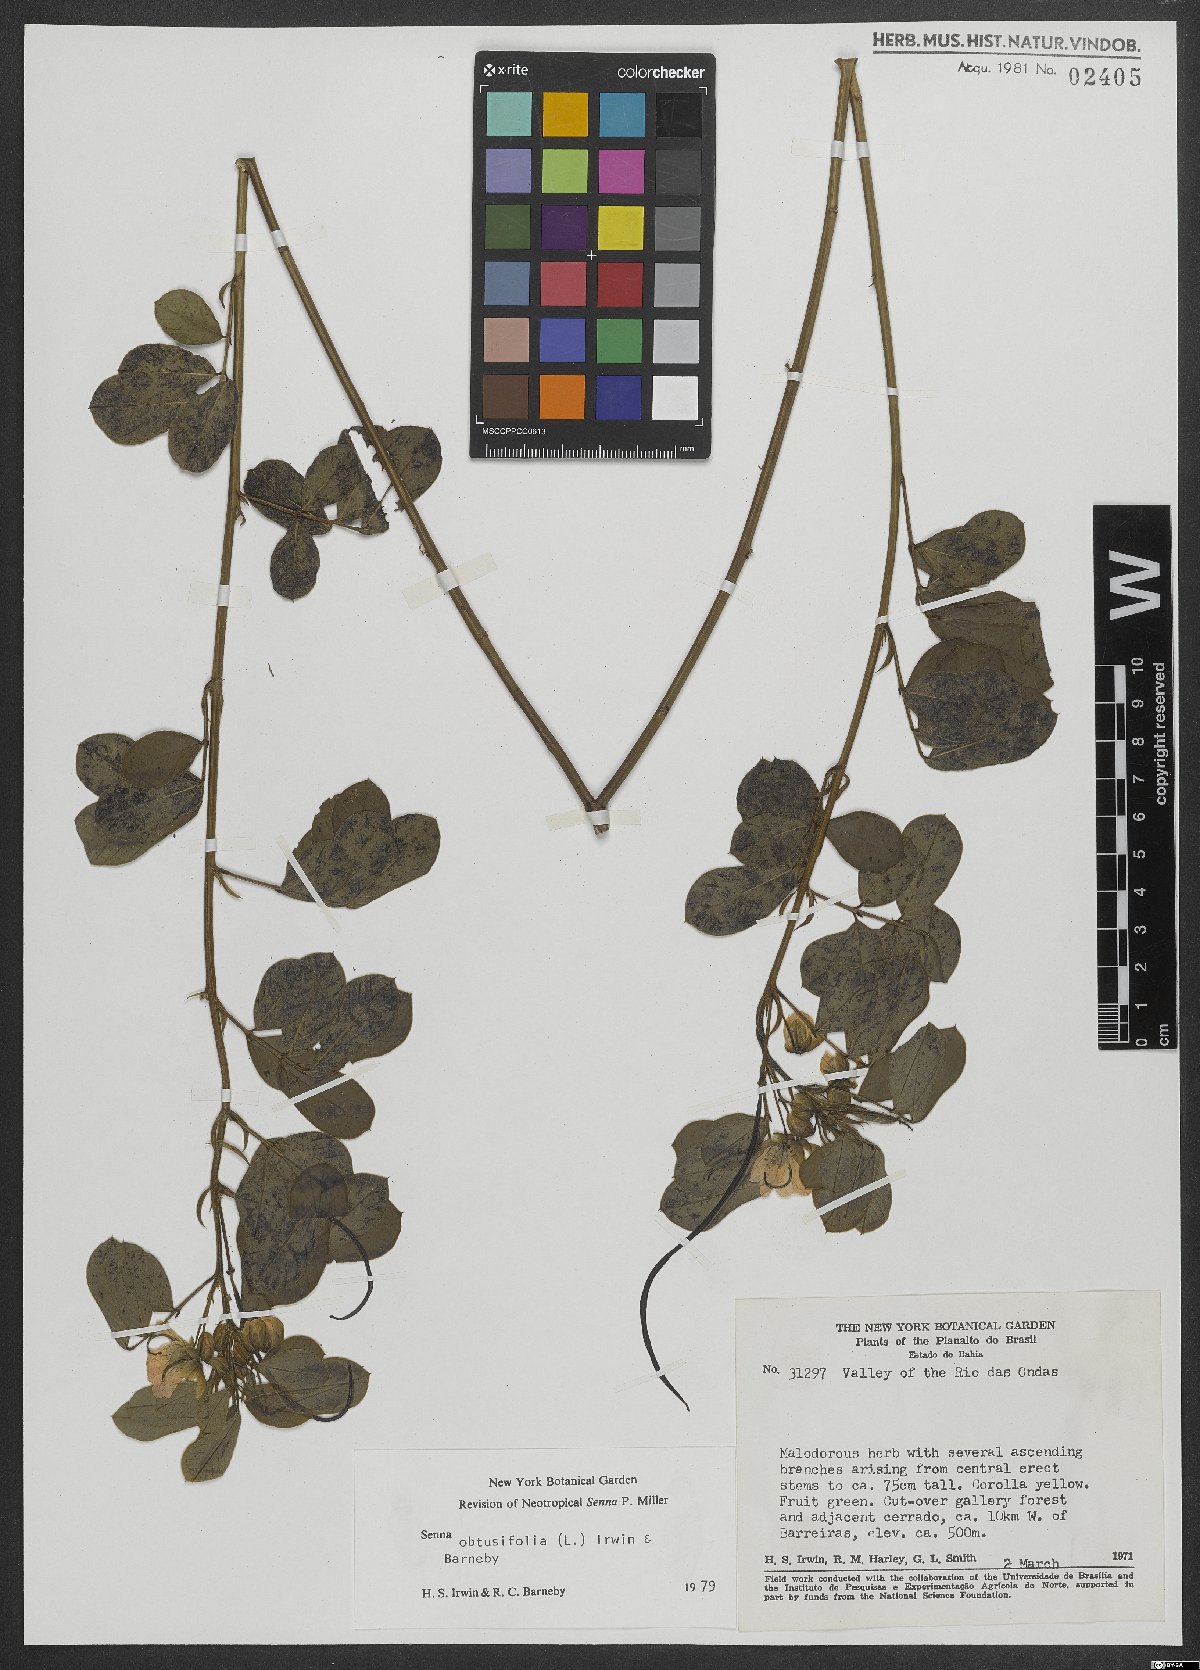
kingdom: Plantae
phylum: Tracheophyta
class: Magnoliopsida
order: Fabales
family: Fabaceae
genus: Senna
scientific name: Senna obtusifolia
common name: Java-bean
